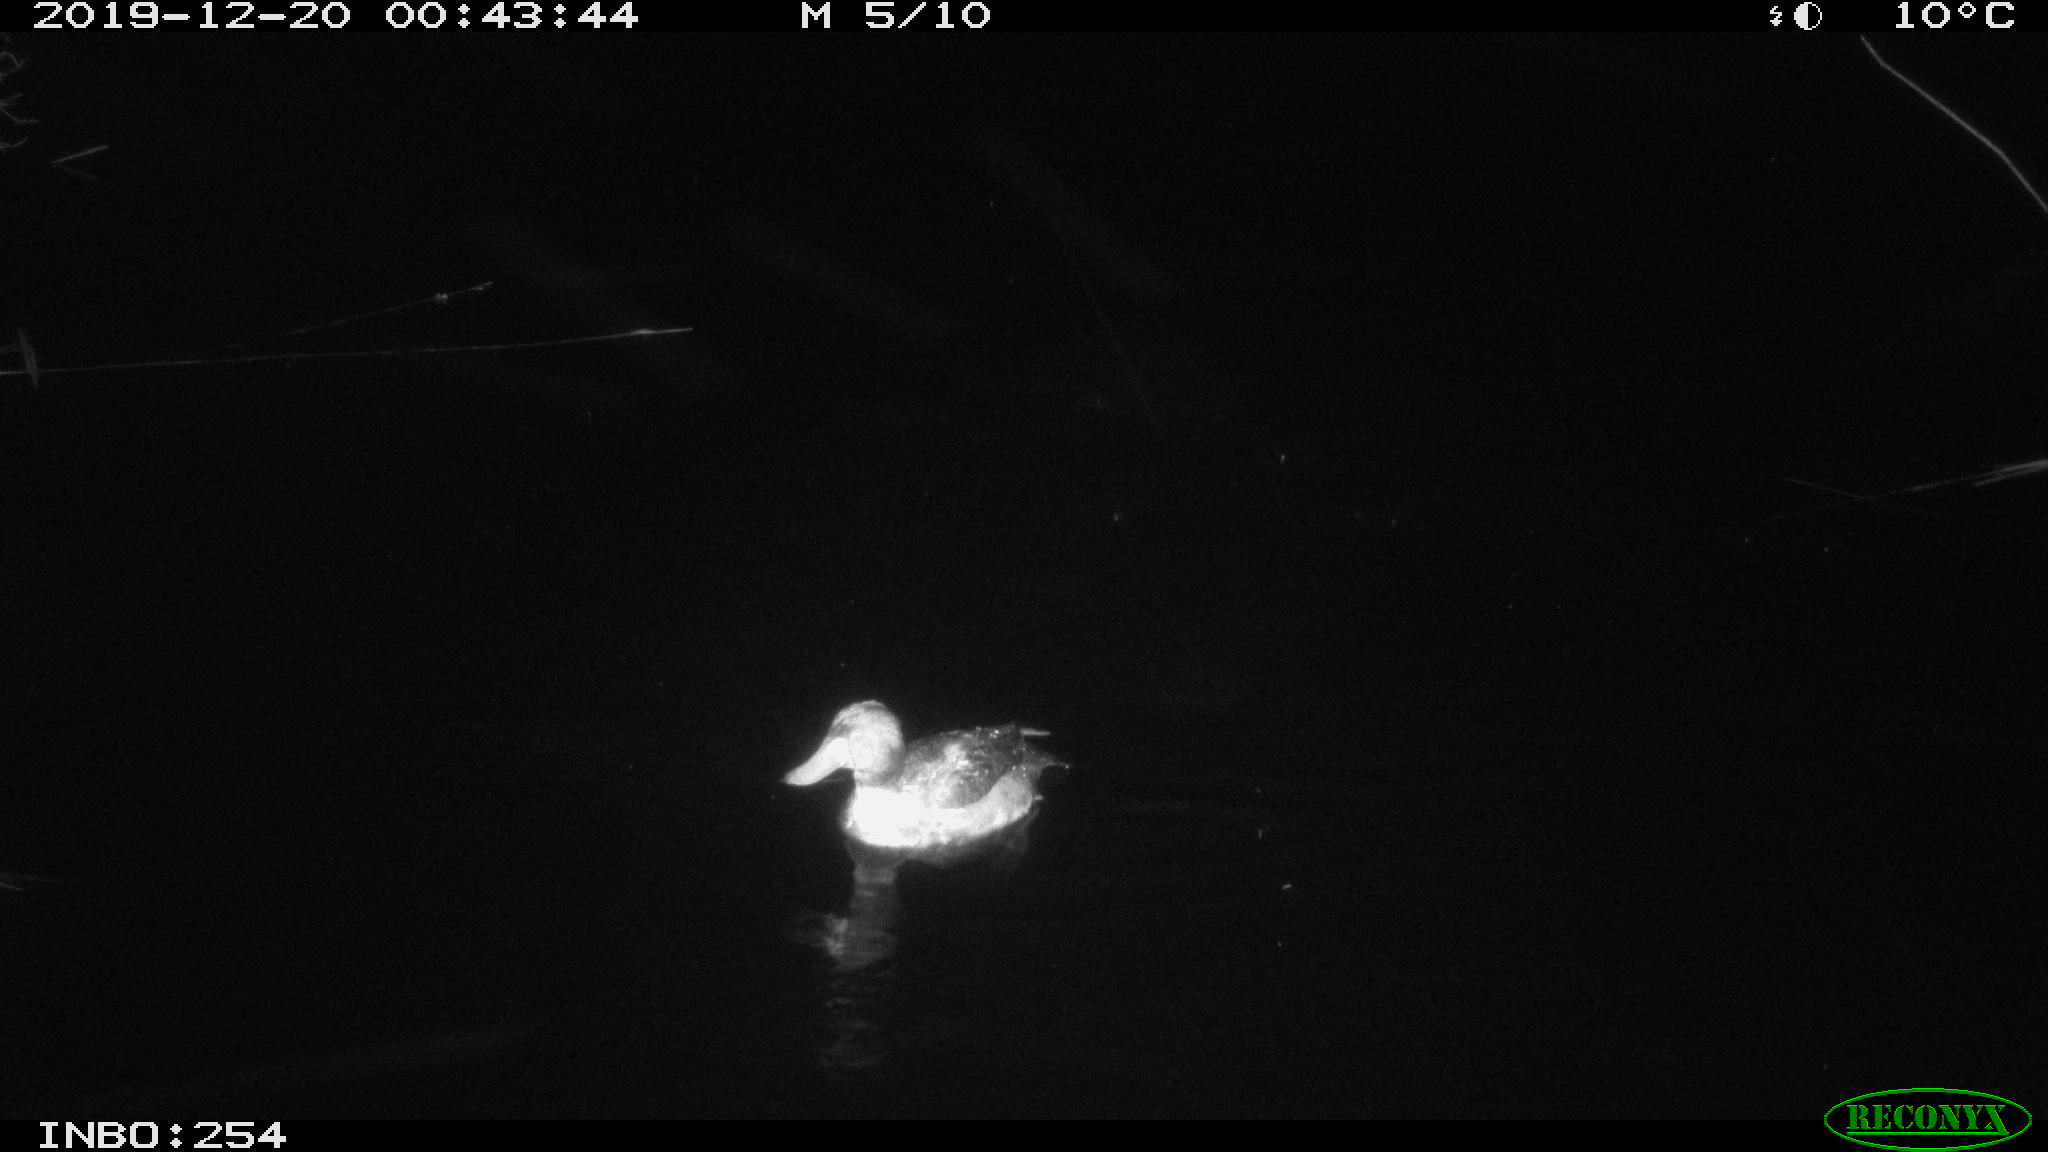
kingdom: Animalia
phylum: Chordata
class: Aves
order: Anseriformes
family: Anatidae
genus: Anas
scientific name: Anas platyrhynchos
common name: Mallard
